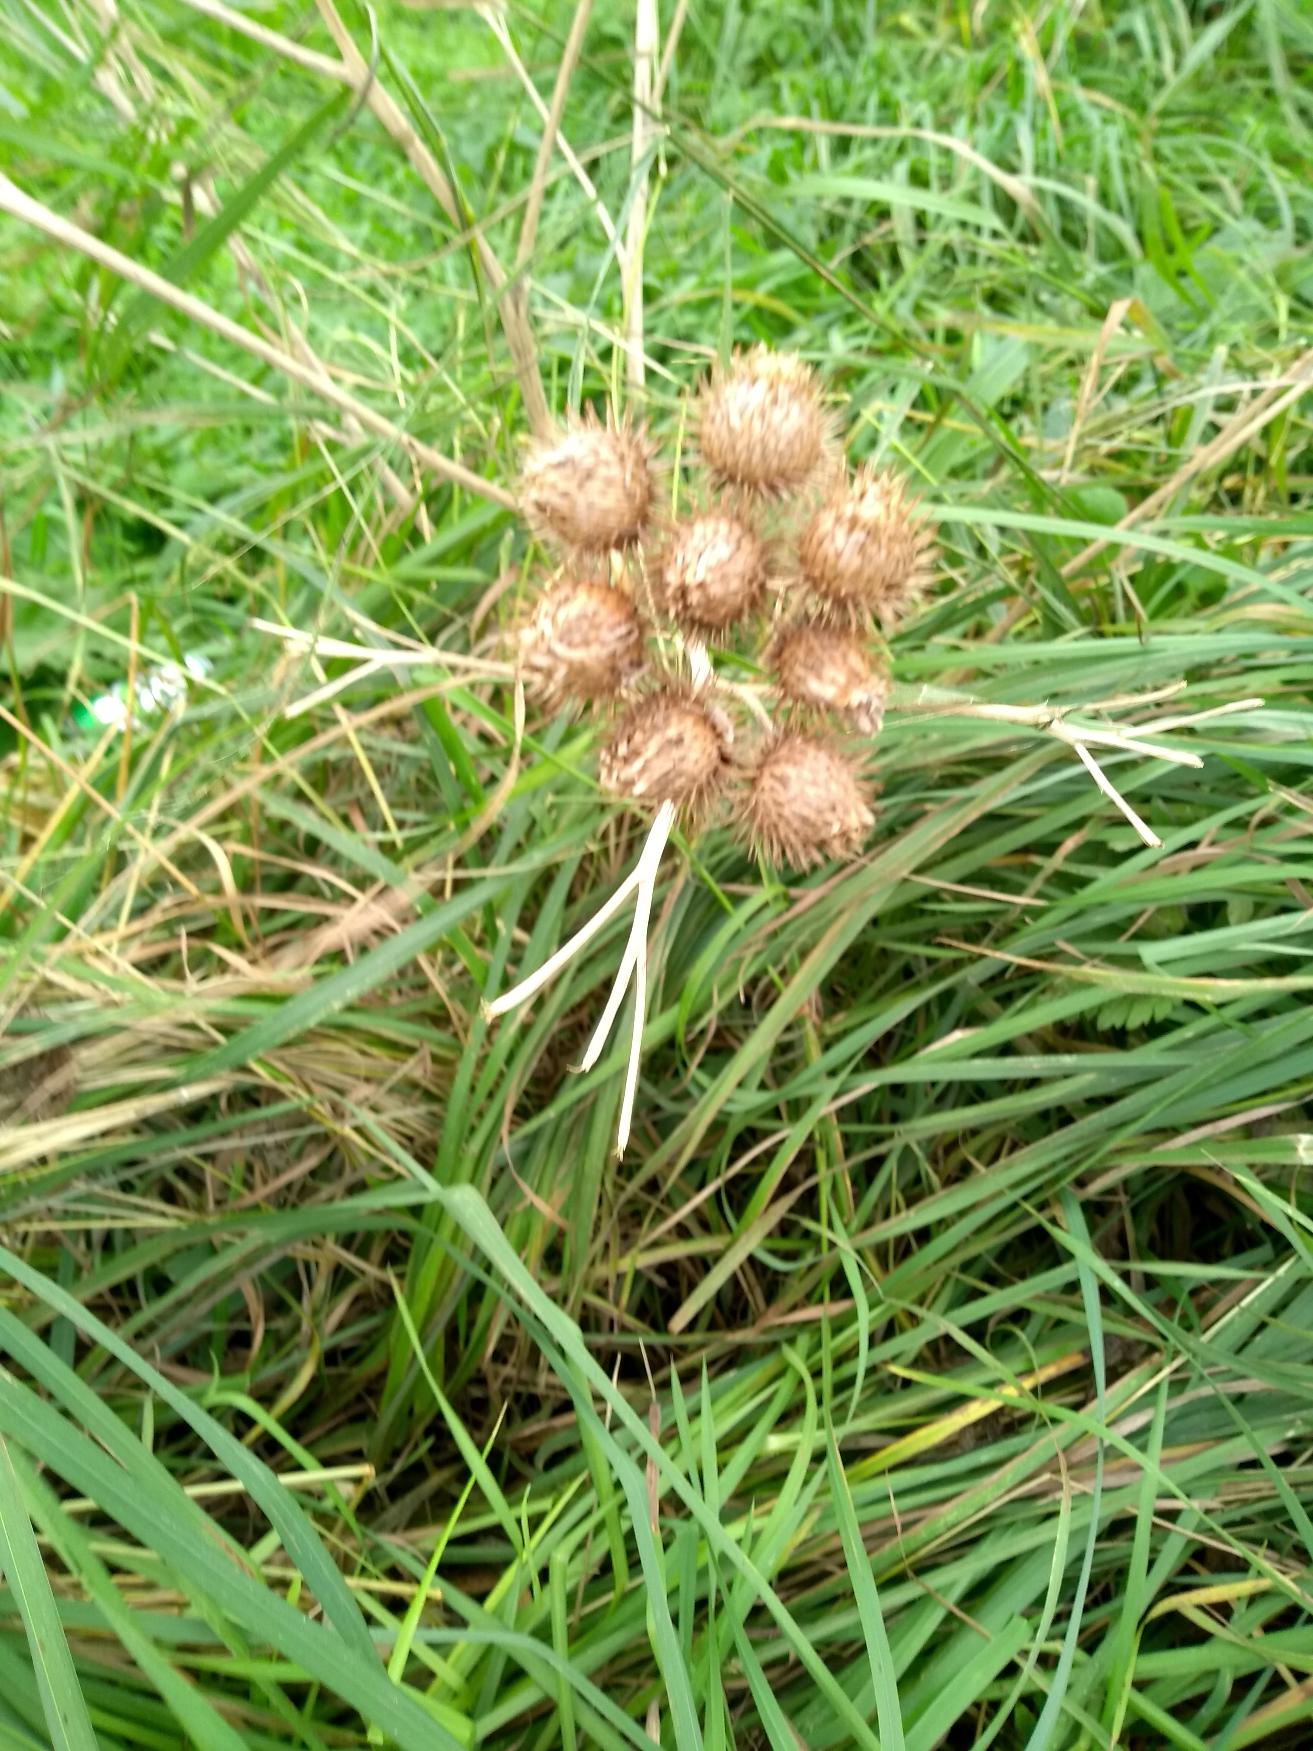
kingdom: Plantae
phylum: Tracheophyta
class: Magnoliopsida
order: Asterales
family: Asteraceae
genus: Arctium
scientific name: Arctium tomentosum
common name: Filtet burre
